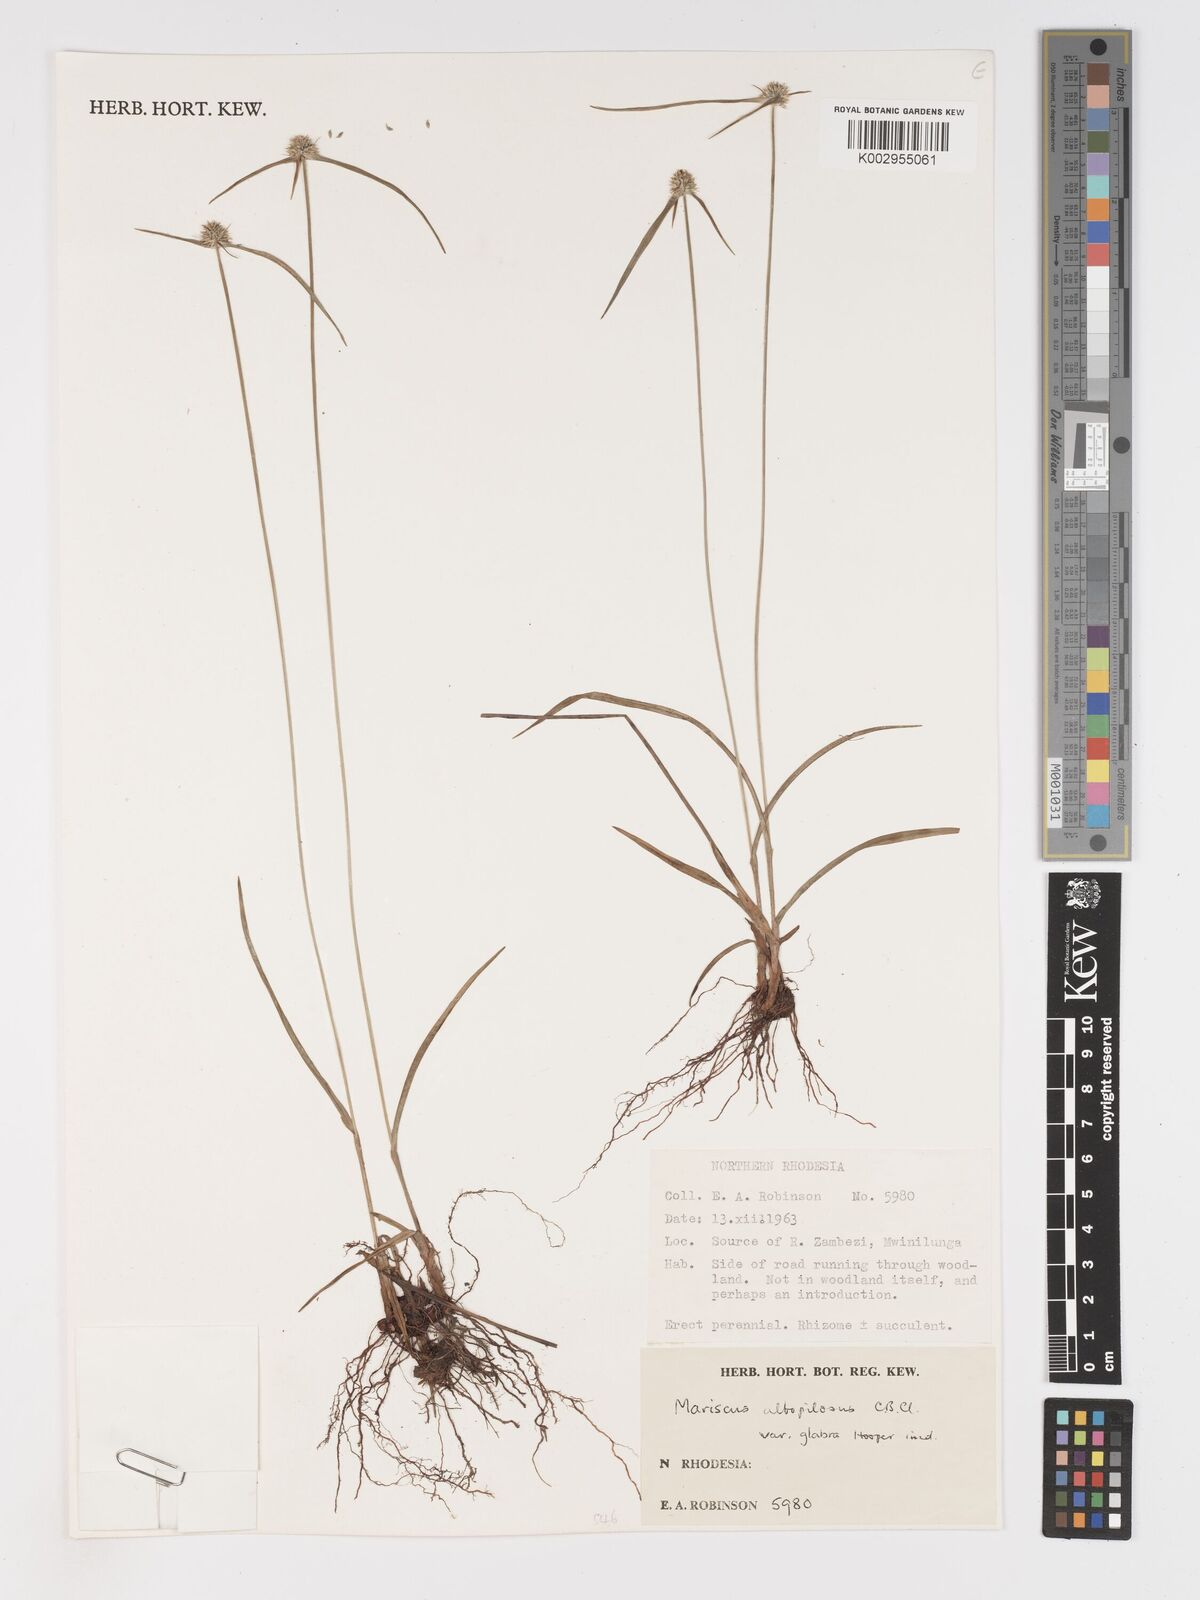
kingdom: Plantae
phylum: Tracheophyta
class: Liliopsida
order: Poales
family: Cyperaceae
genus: Cyperus
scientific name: Cyperus albopilosus
